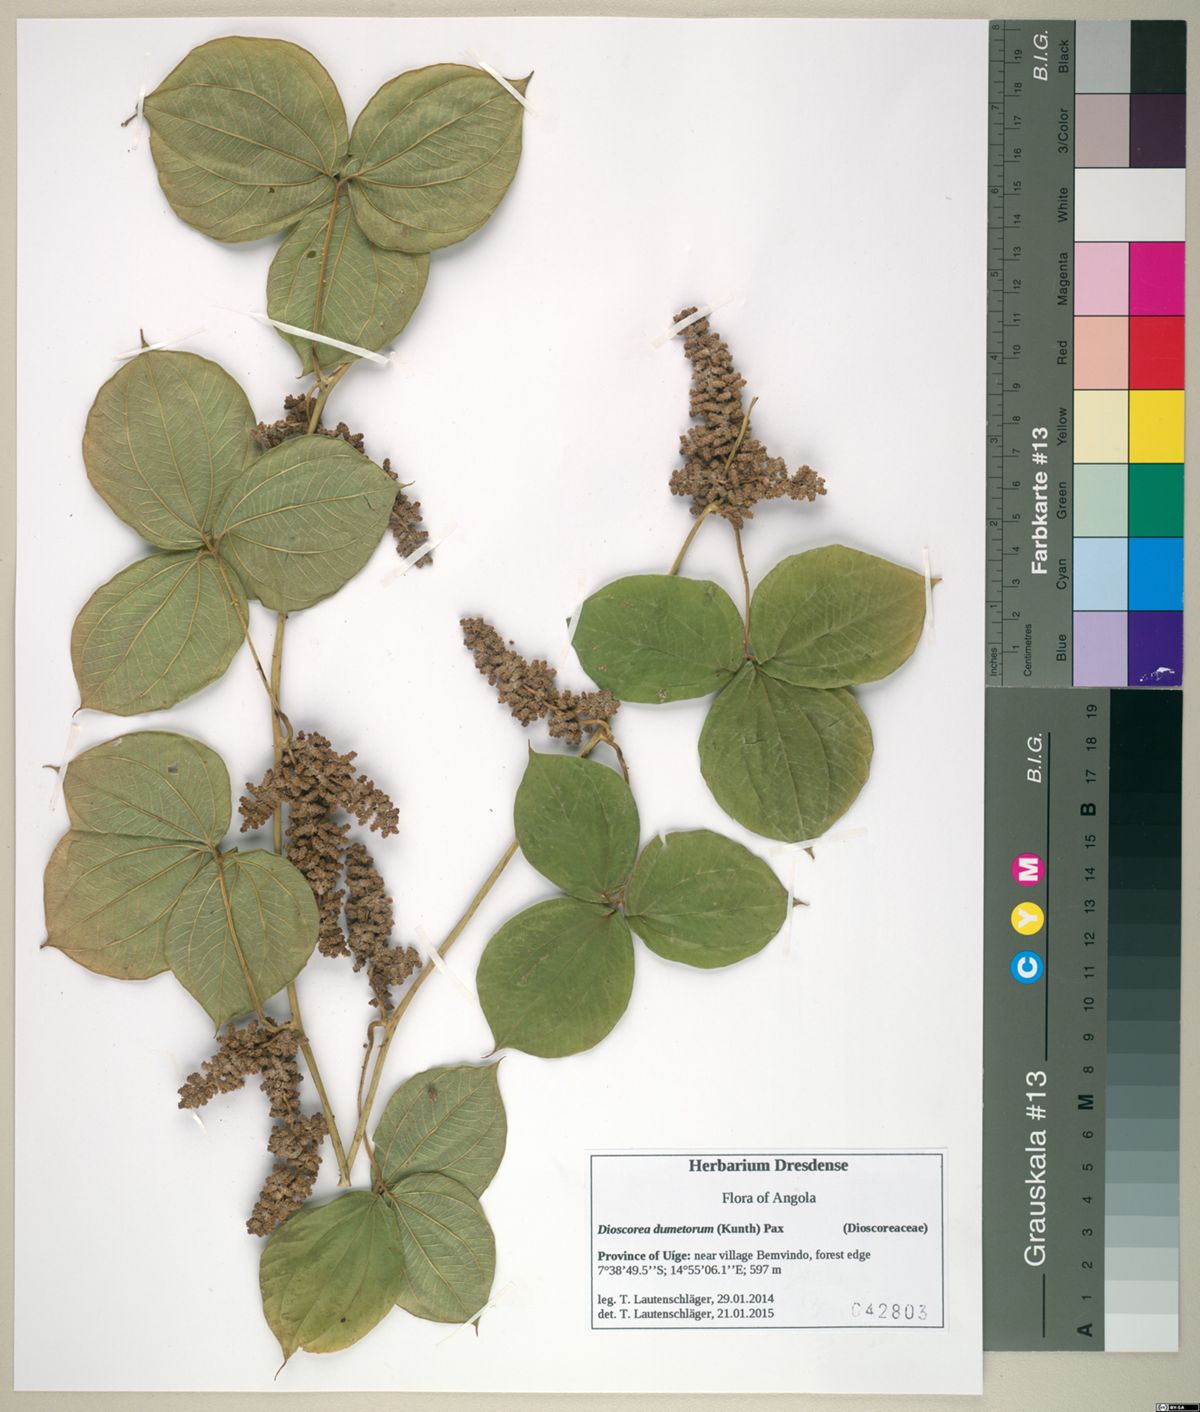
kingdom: Plantae
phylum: Tracheophyta
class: Liliopsida
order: Dioscoreales
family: Dioscoreaceae
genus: Dioscorea
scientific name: Dioscorea dumetorum
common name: African bitter yam
